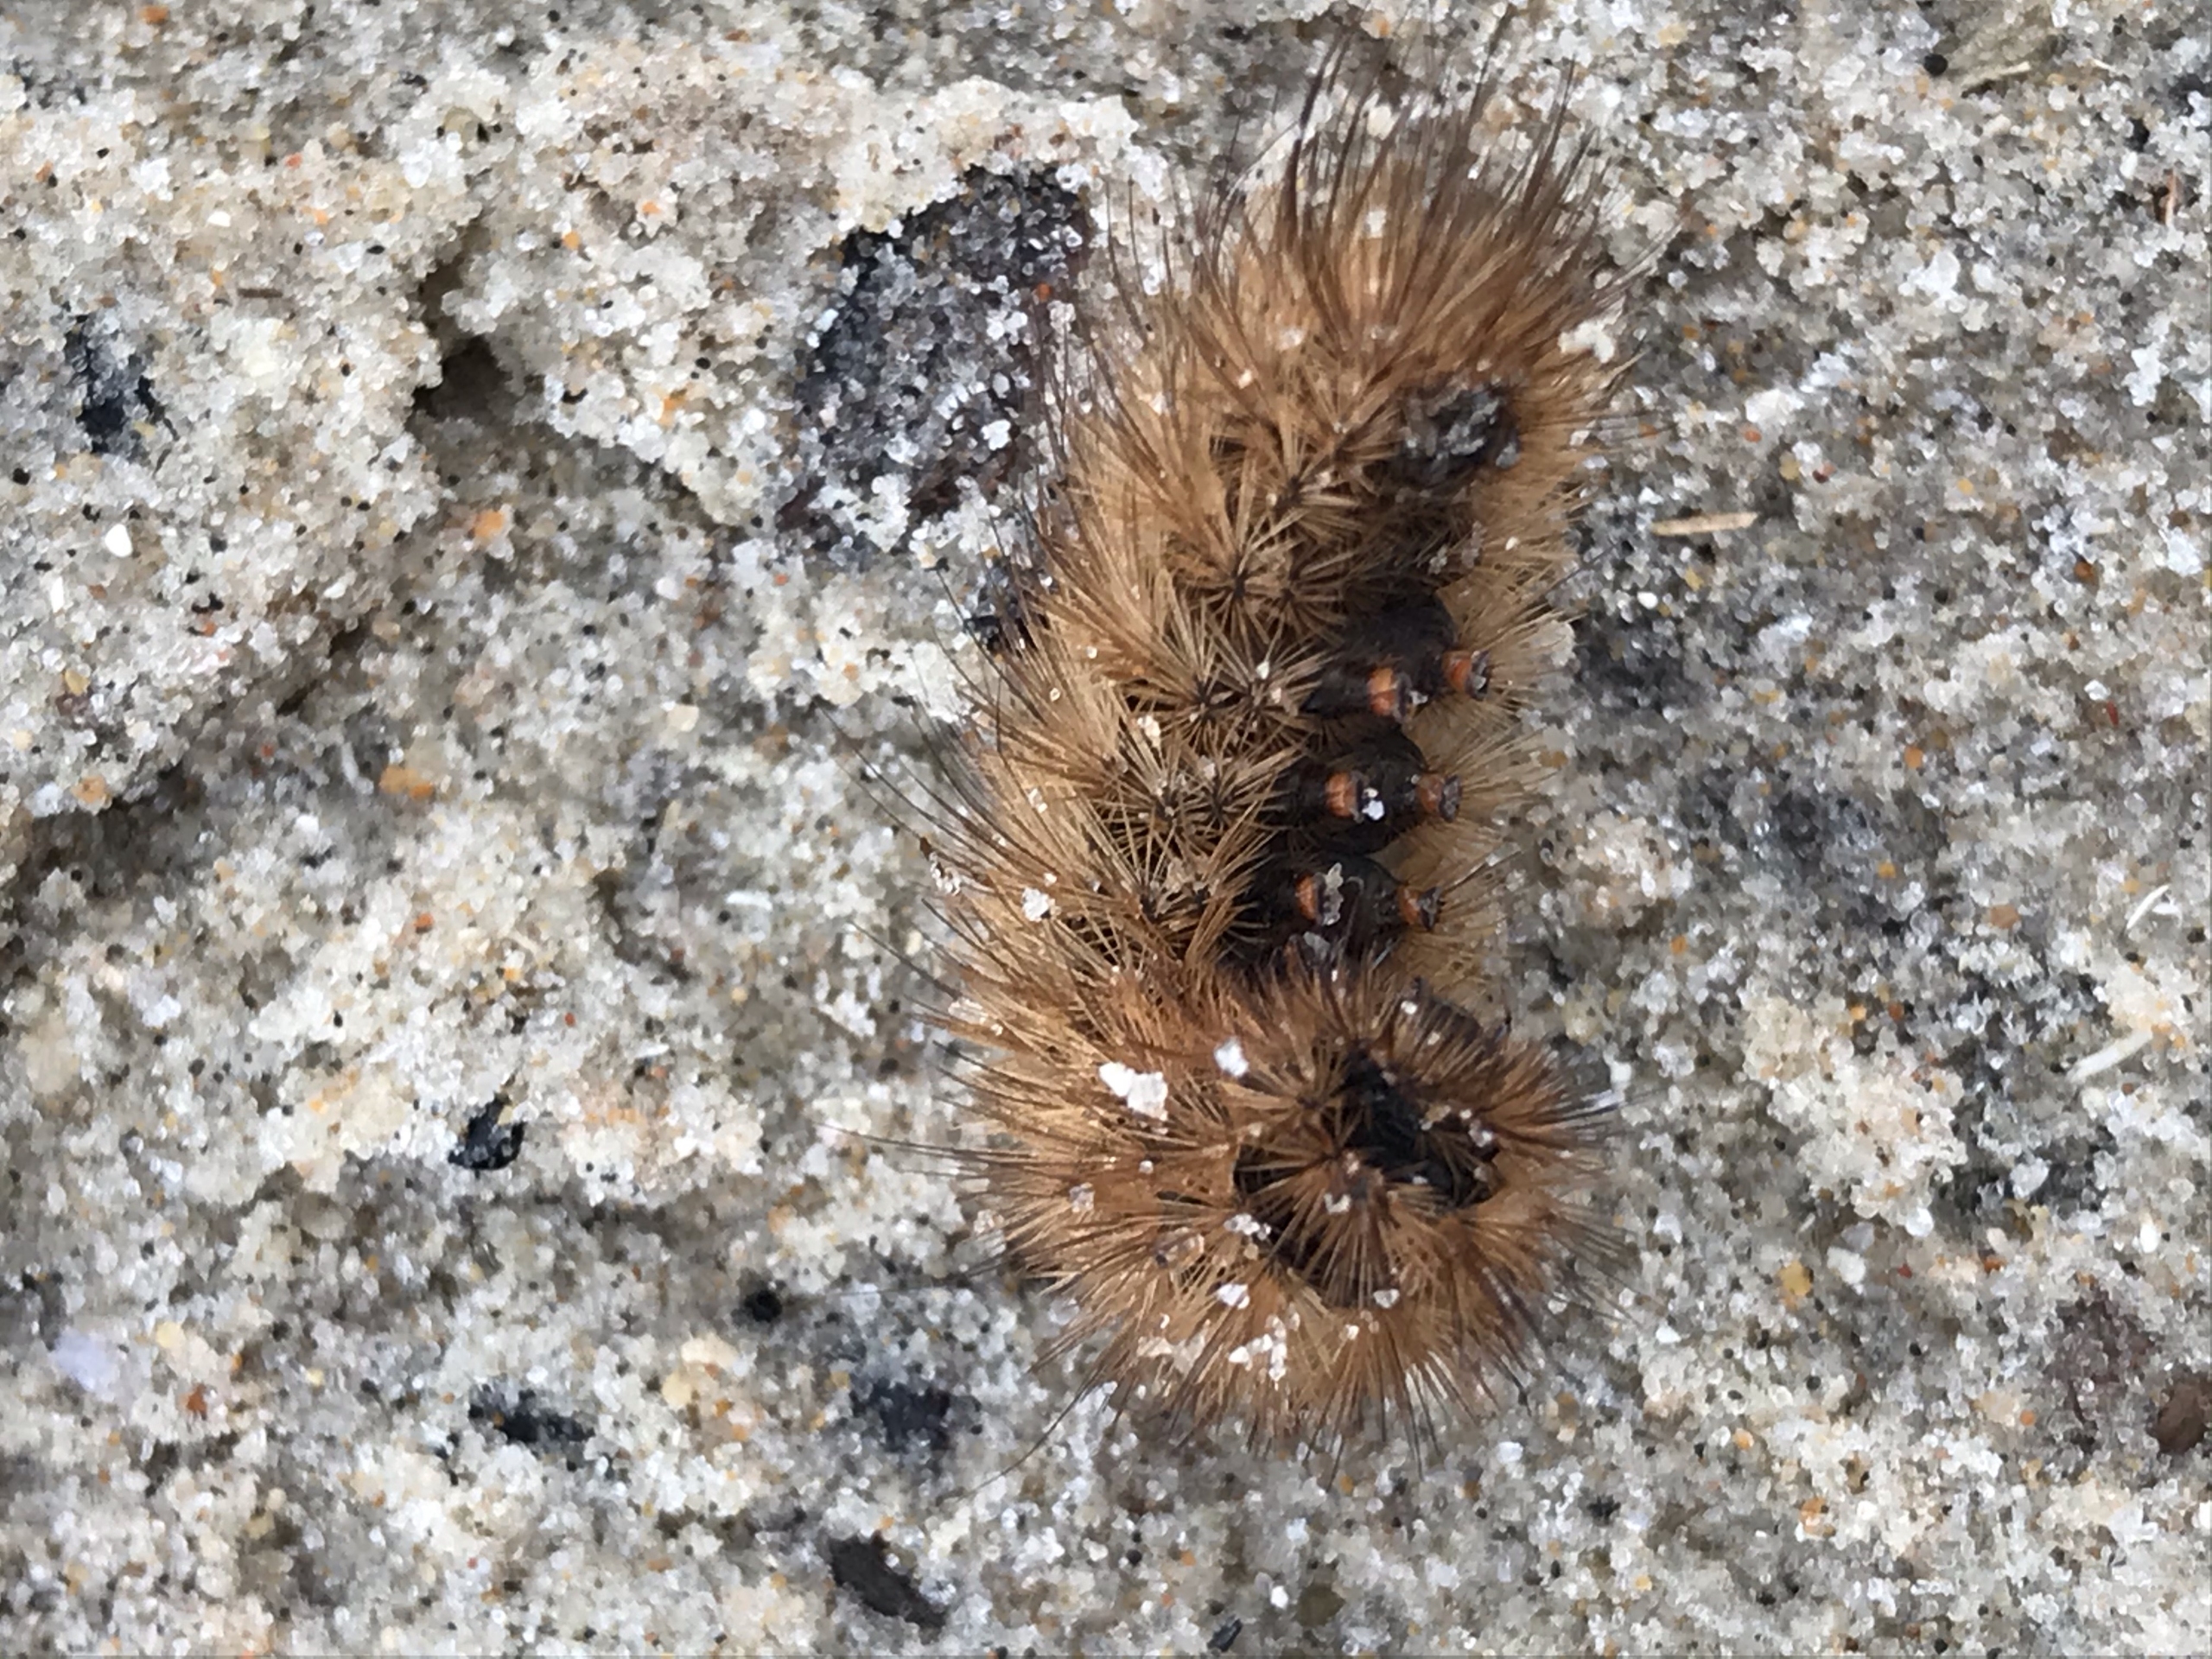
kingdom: Animalia
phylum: Arthropoda
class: Insecta
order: Lepidoptera
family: Erebidae
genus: Phragmatobia
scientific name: Phragmatobia fuliginosa
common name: Kanelbjørn
